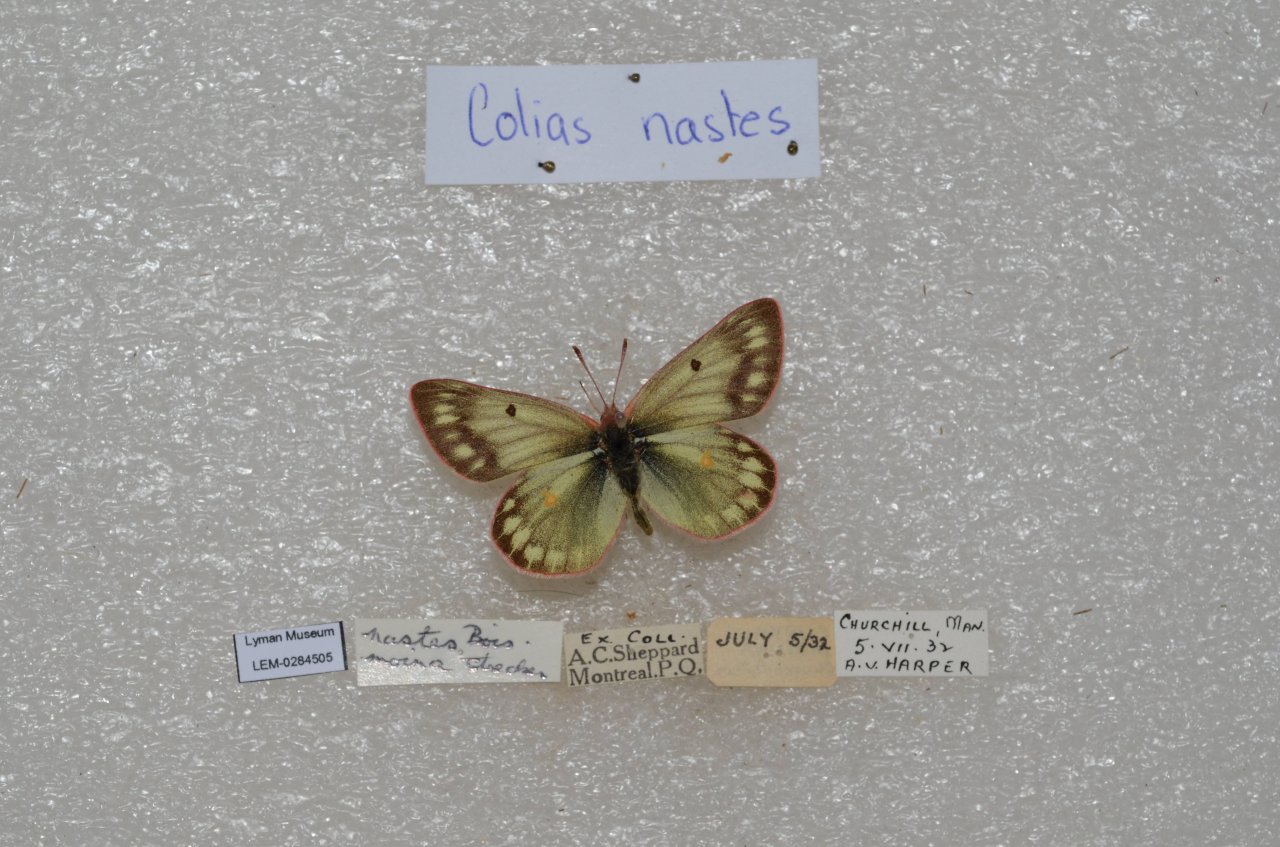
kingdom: Animalia
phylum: Arthropoda
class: Insecta
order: Lepidoptera
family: Pieridae
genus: Colias
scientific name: Colias nastes
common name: Labrador Sulphur
